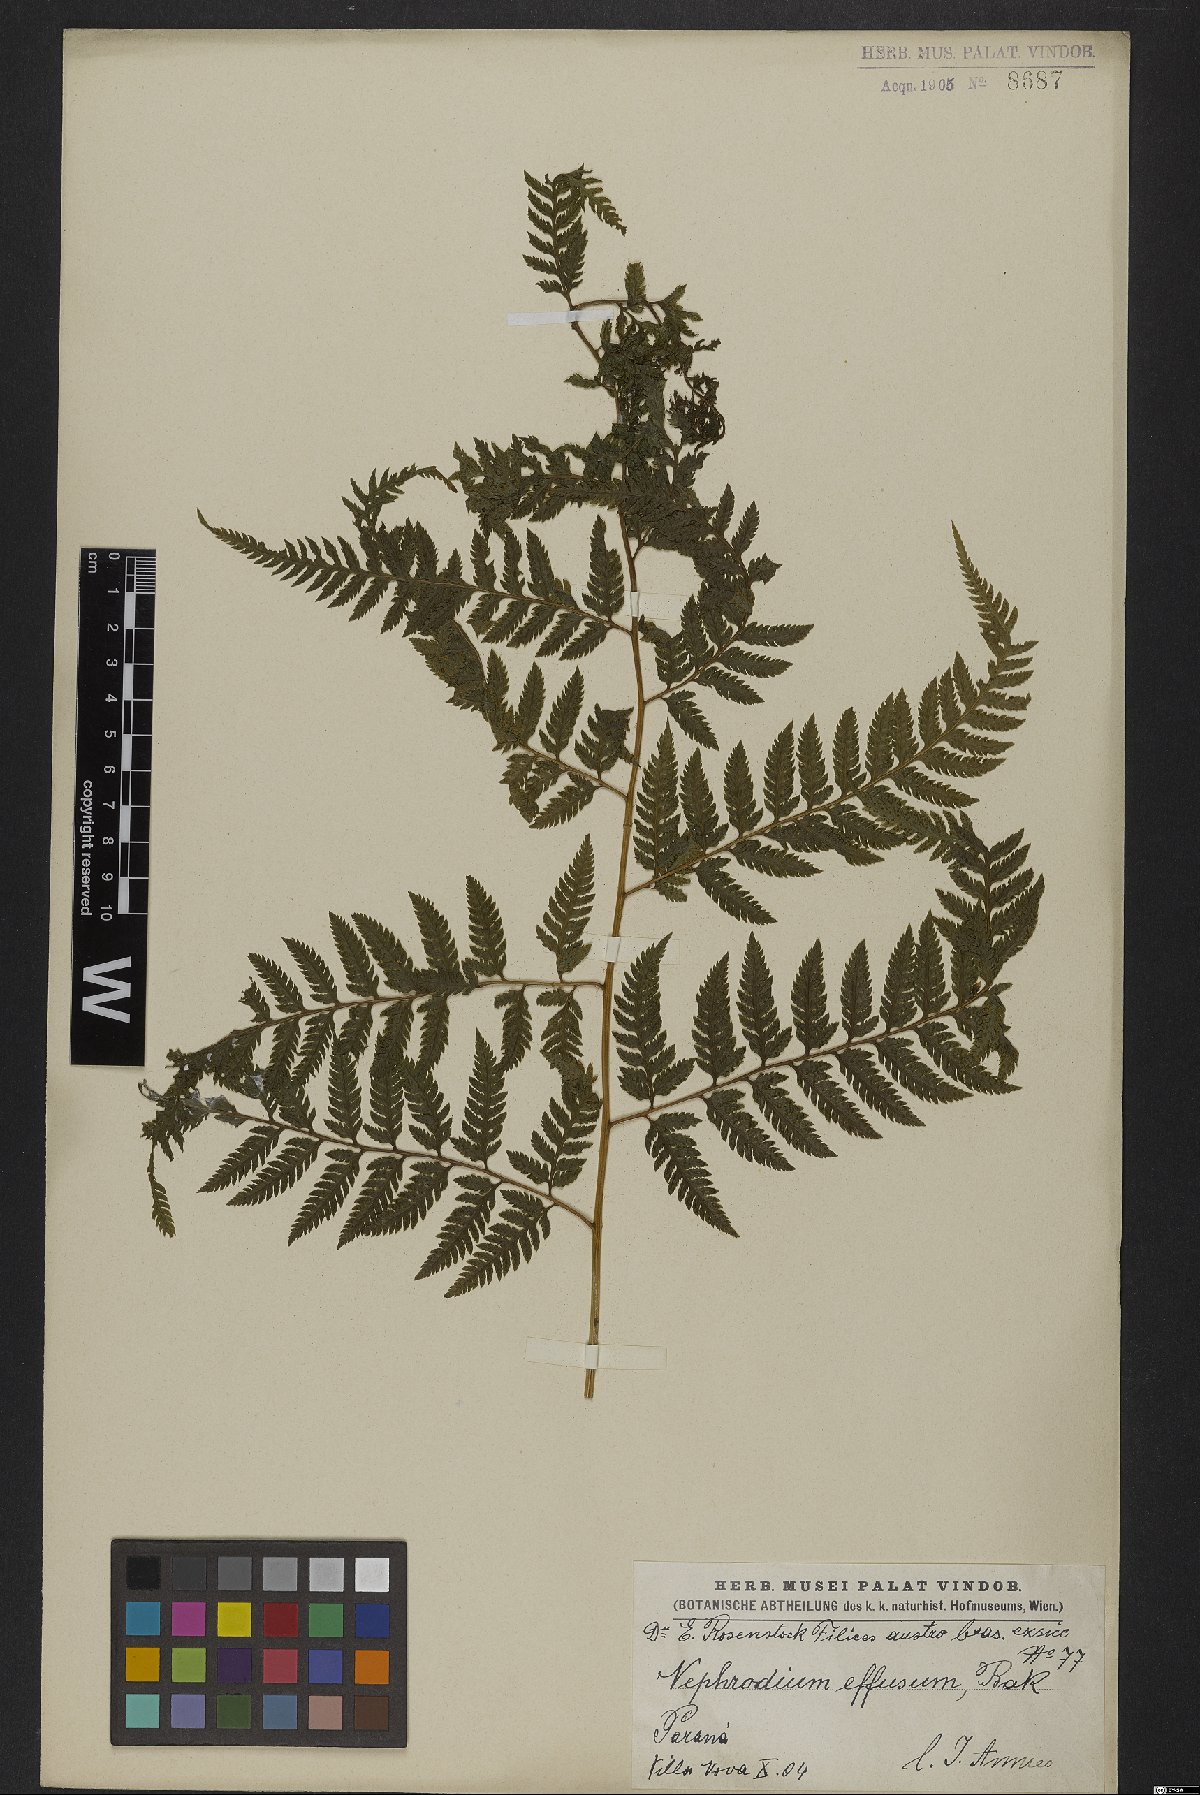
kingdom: Plantae
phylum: Tracheophyta
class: Polypodiopsida
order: Polypodiales
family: Dryopteridaceae
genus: Parapolystichum
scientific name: Parapolystichum effusum
